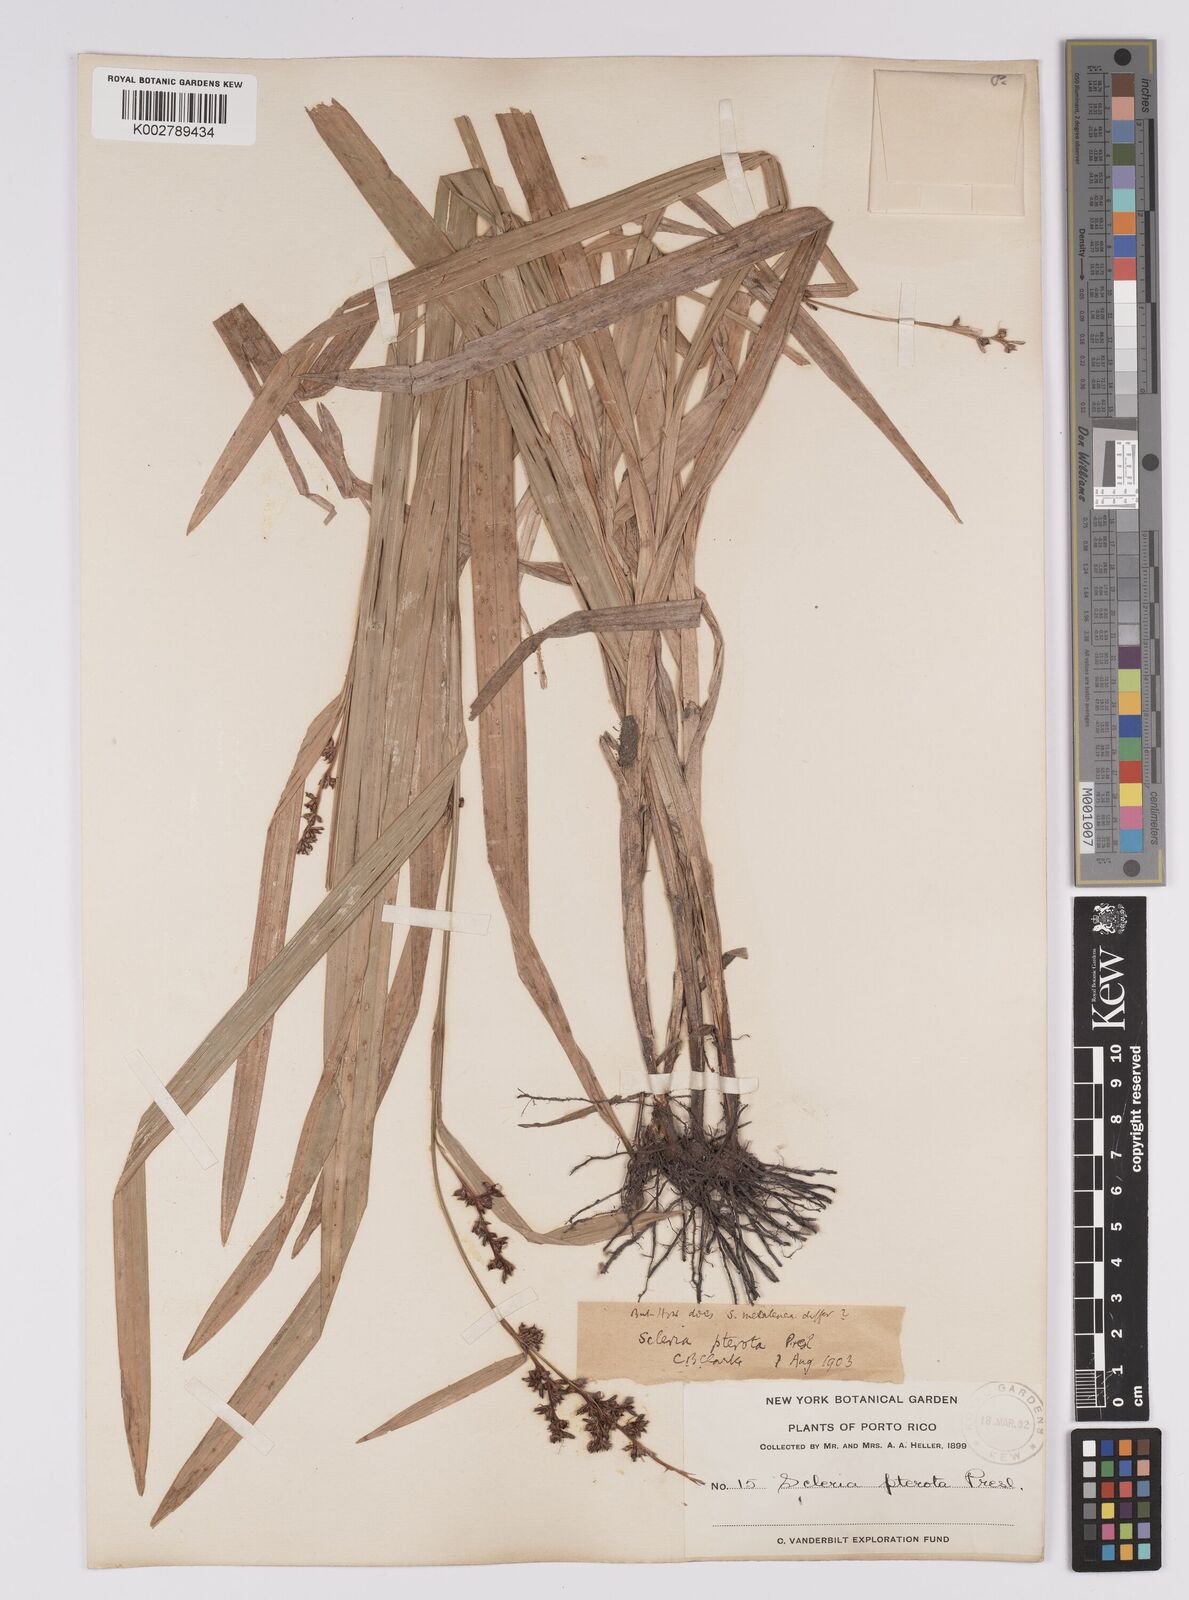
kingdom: Plantae
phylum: Tracheophyta
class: Liliopsida
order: Poales
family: Cyperaceae
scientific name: Cyperaceae
